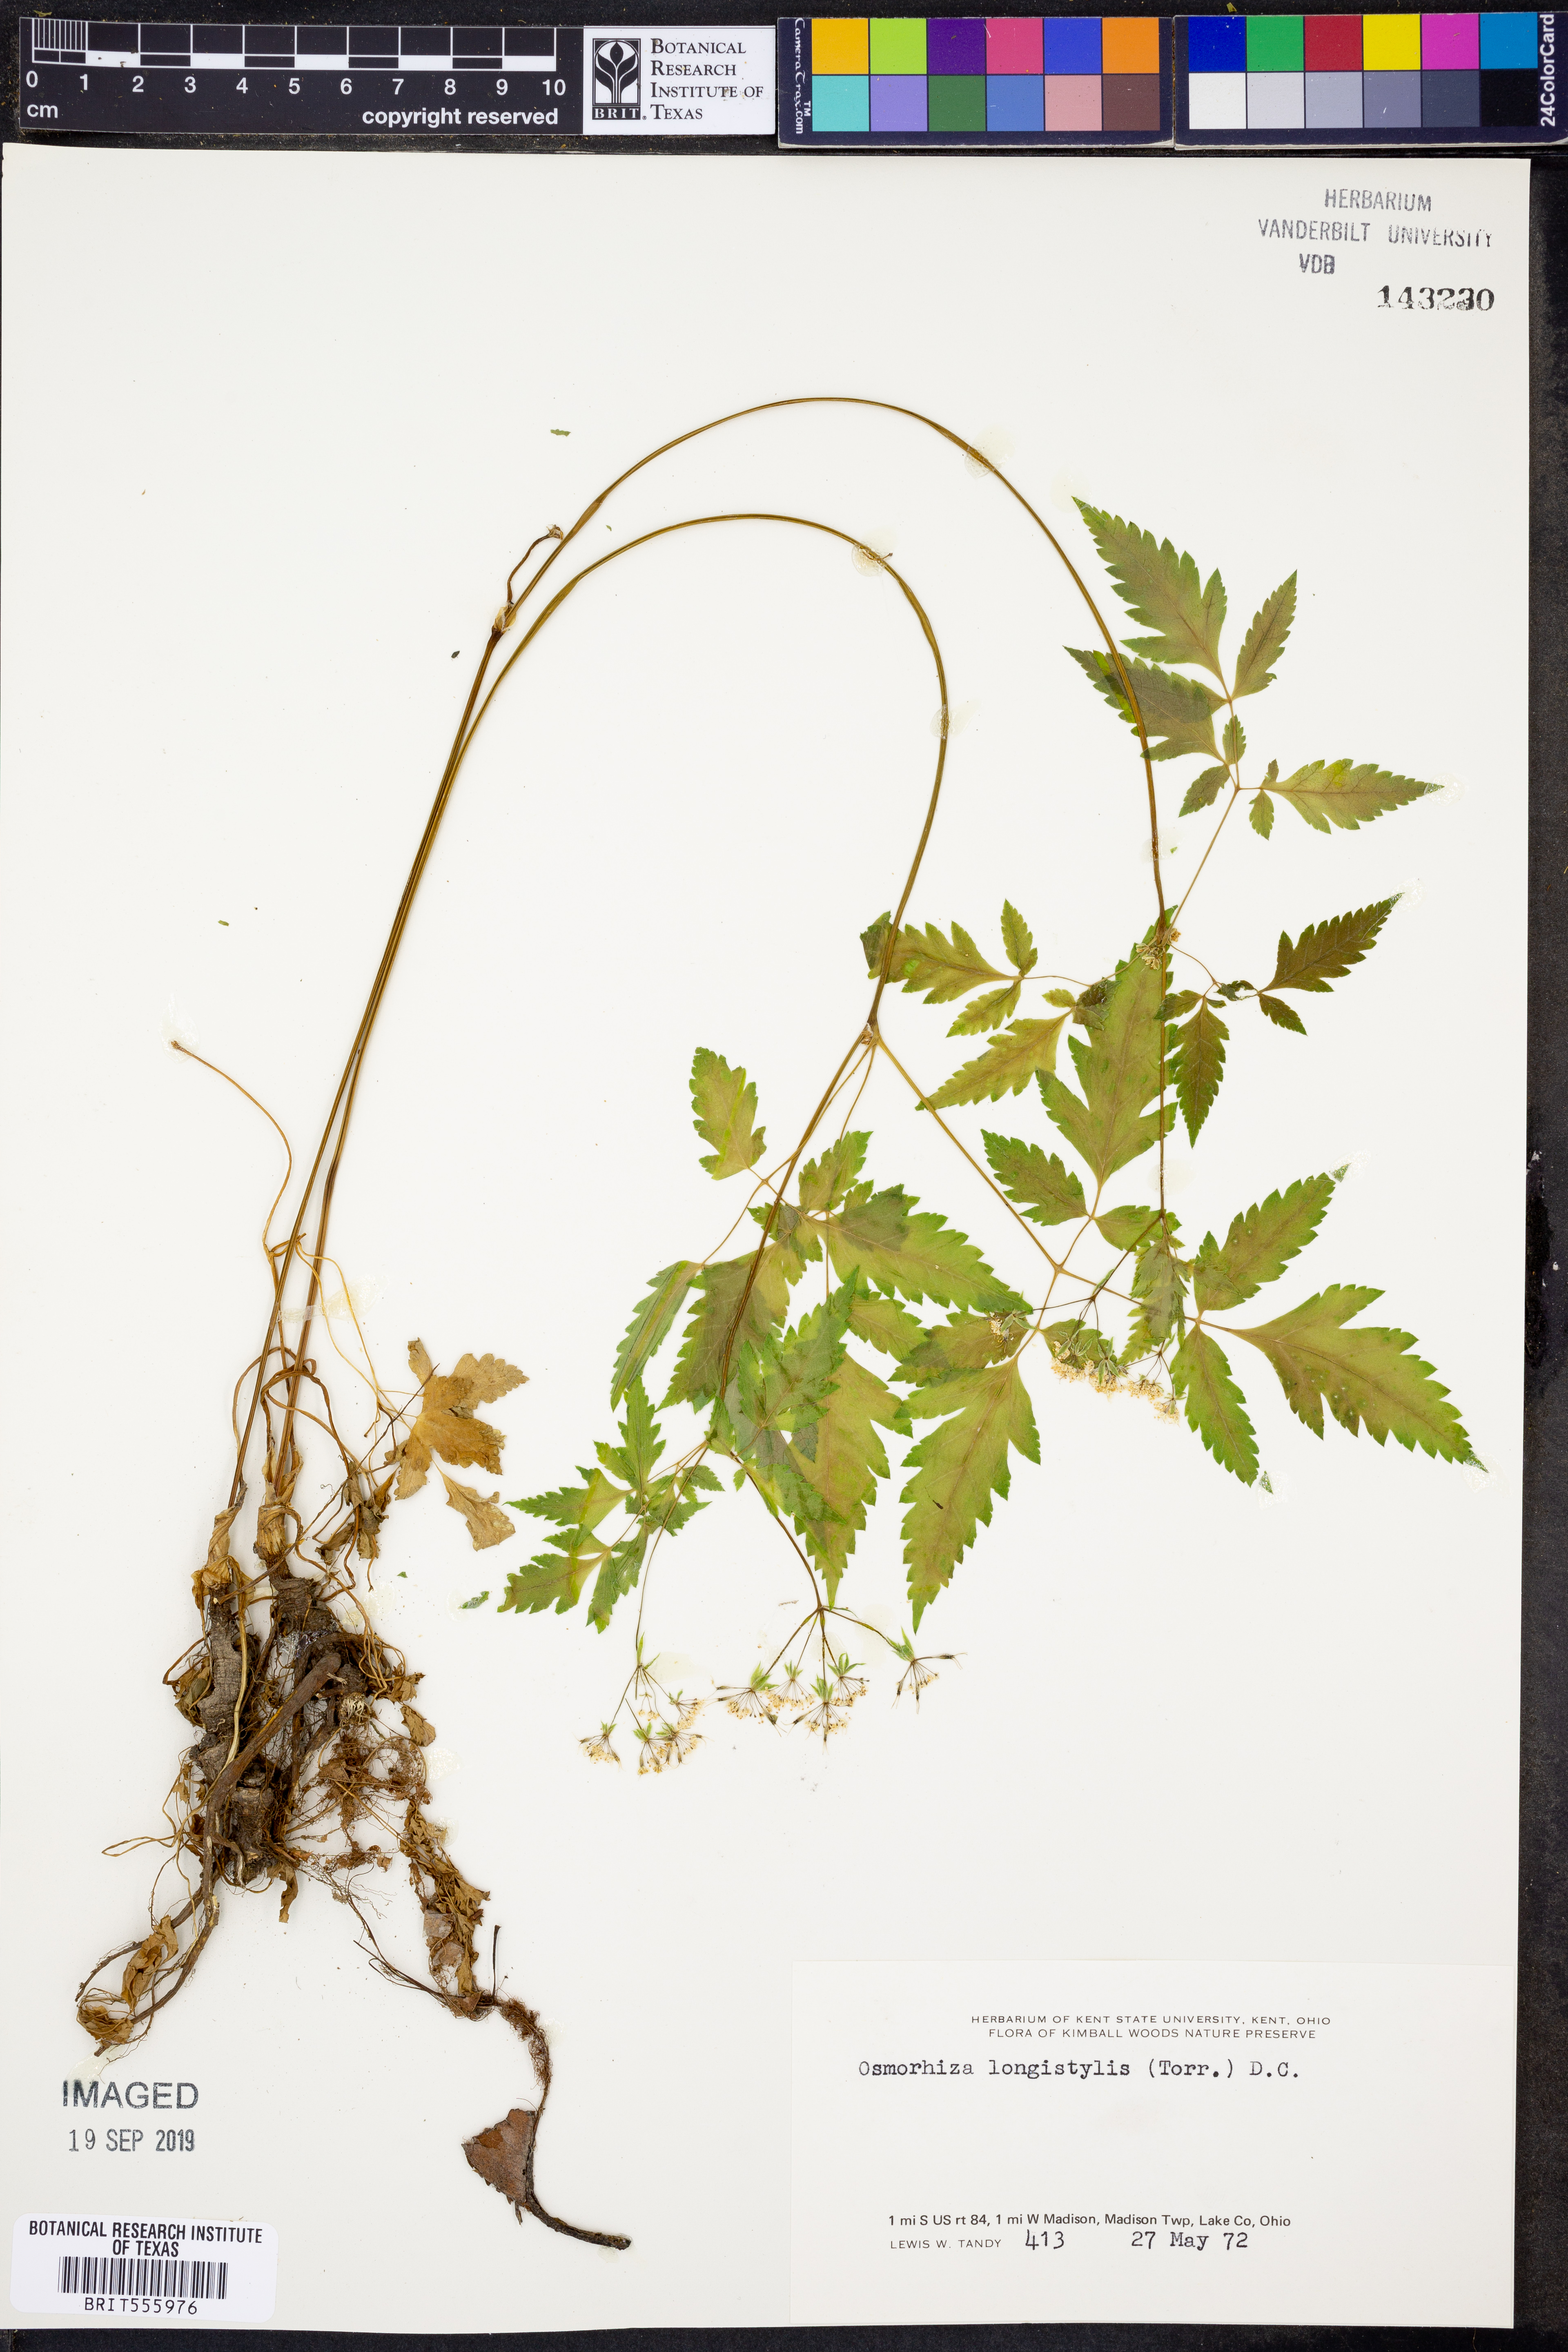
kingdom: Plantae
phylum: Tracheophyta
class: Magnoliopsida
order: Apiales
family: Apiaceae
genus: Osmorhiza
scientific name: Osmorhiza longistylis
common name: Smooth sweet cicely
